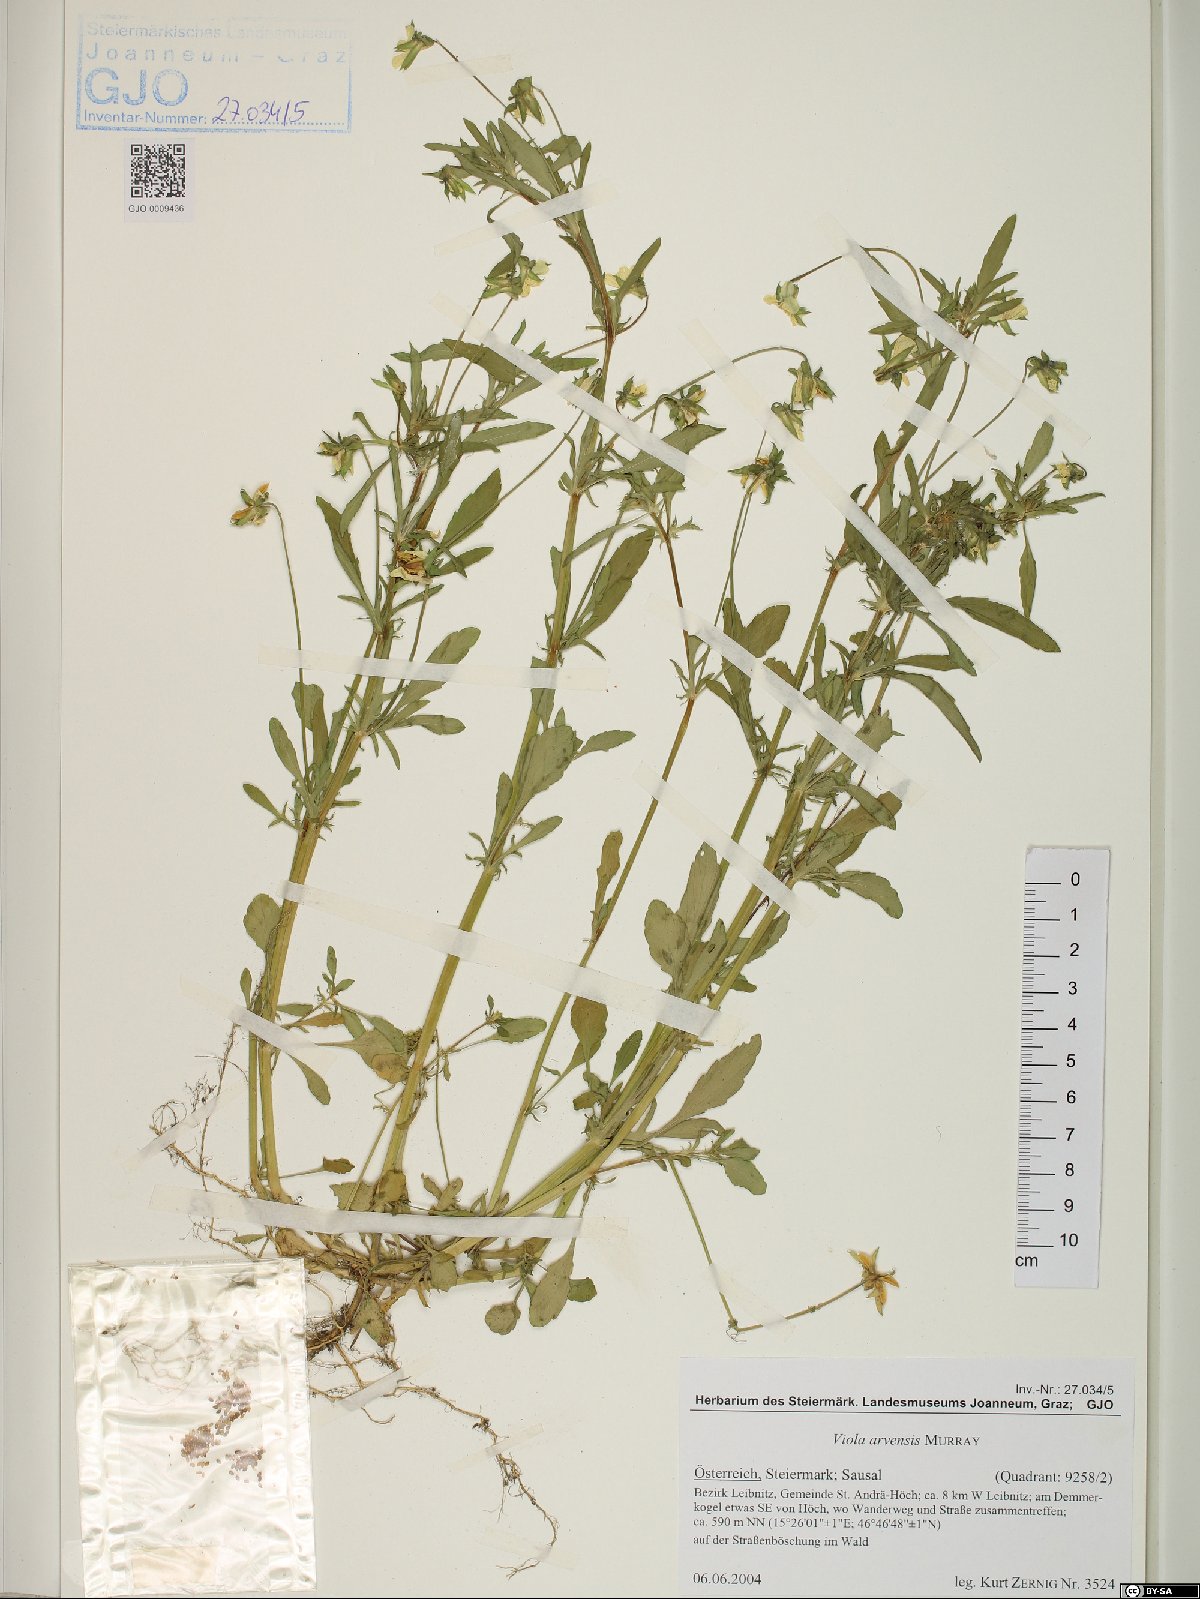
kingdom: Plantae
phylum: Tracheophyta
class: Magnoliopsida
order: Malpighiales
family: Violaceae
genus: Viola
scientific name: Viola arvensis
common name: Field pansy
